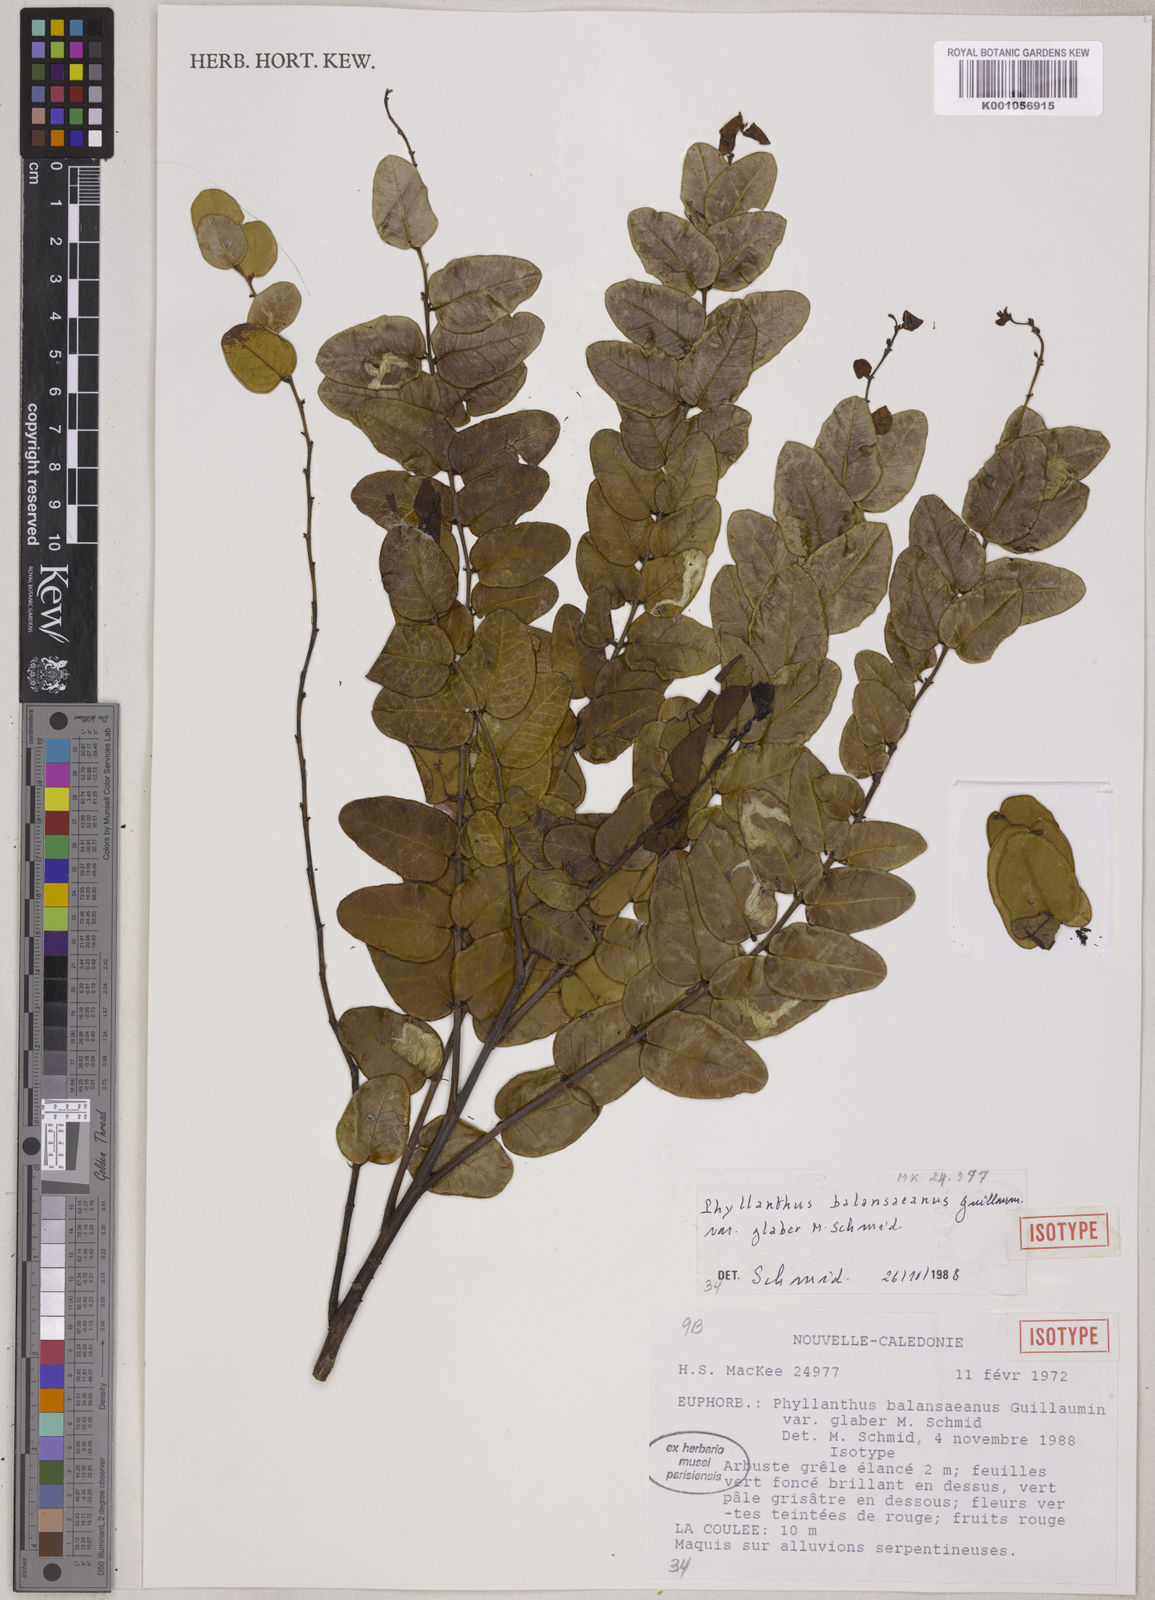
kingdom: Plantae
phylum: Tracheophyta
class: Magnoliopsida
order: Malpighiales
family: Phyllanthaceae
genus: Phyllanthus
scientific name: Phyllanthus
